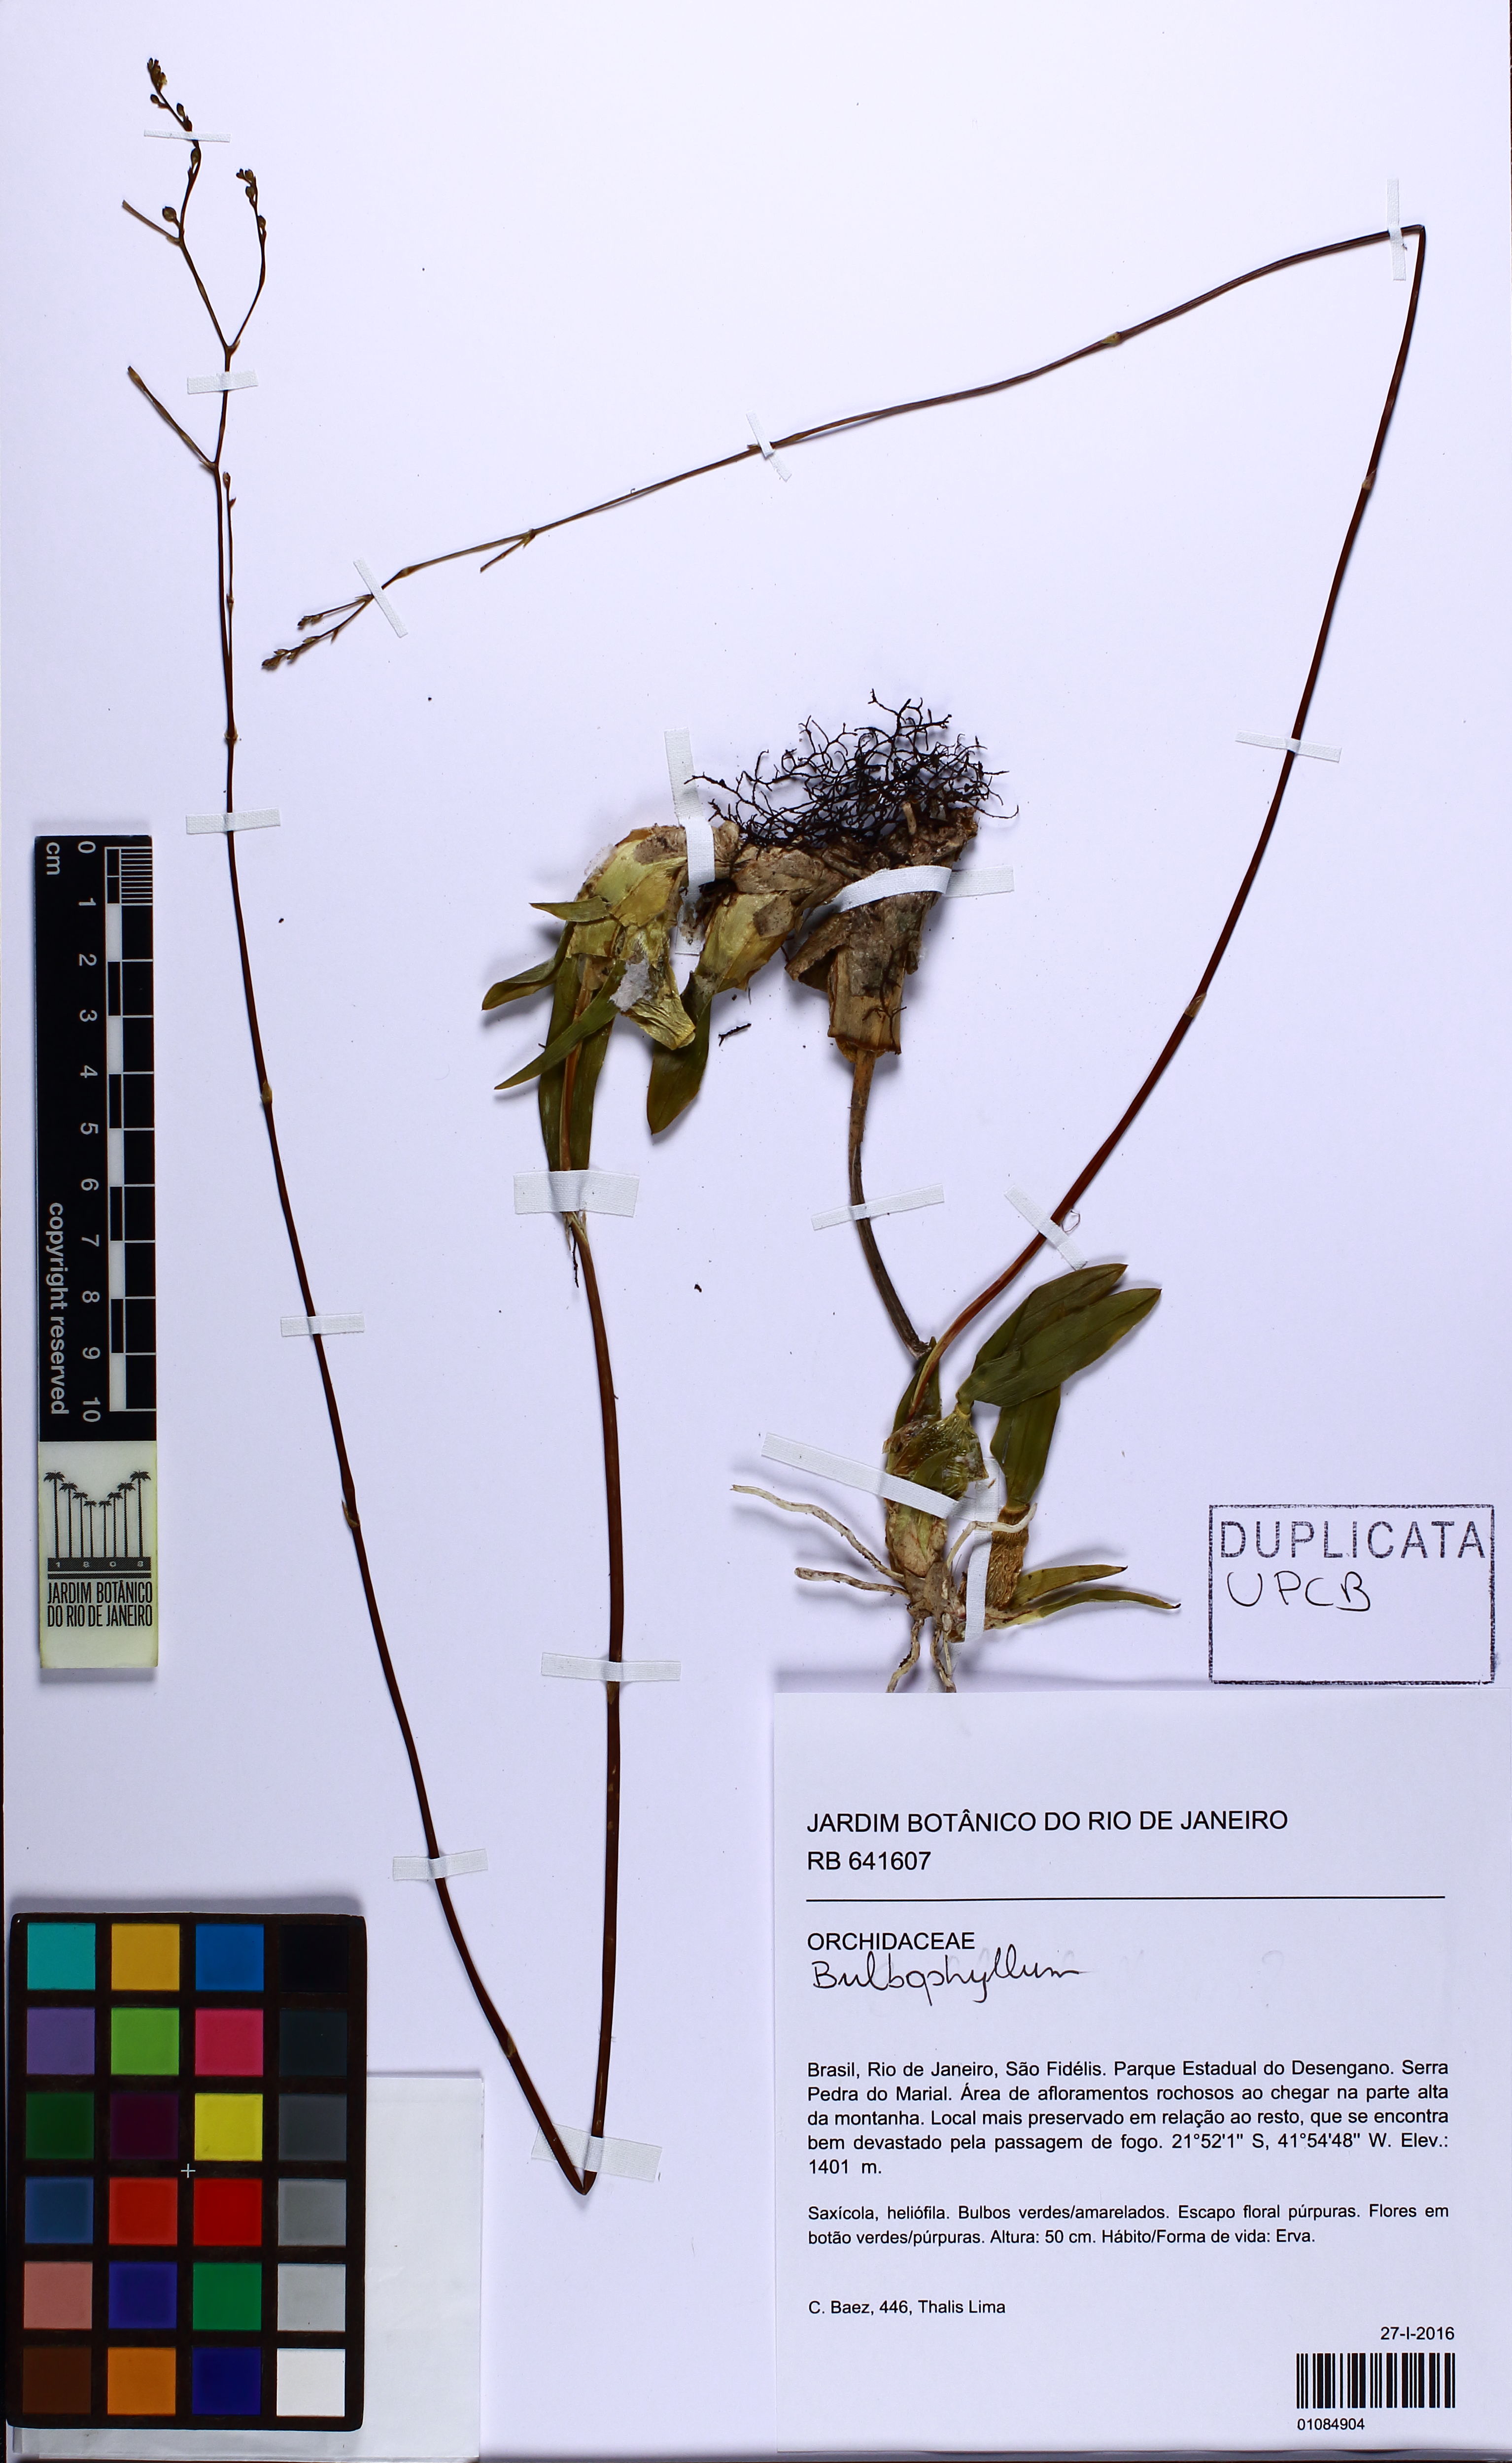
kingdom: Plantae
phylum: Tracheophyta
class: Liliopsida
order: Asparagales
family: Orchidaceae
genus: Bulbophyllum
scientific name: Bulbophyllum
